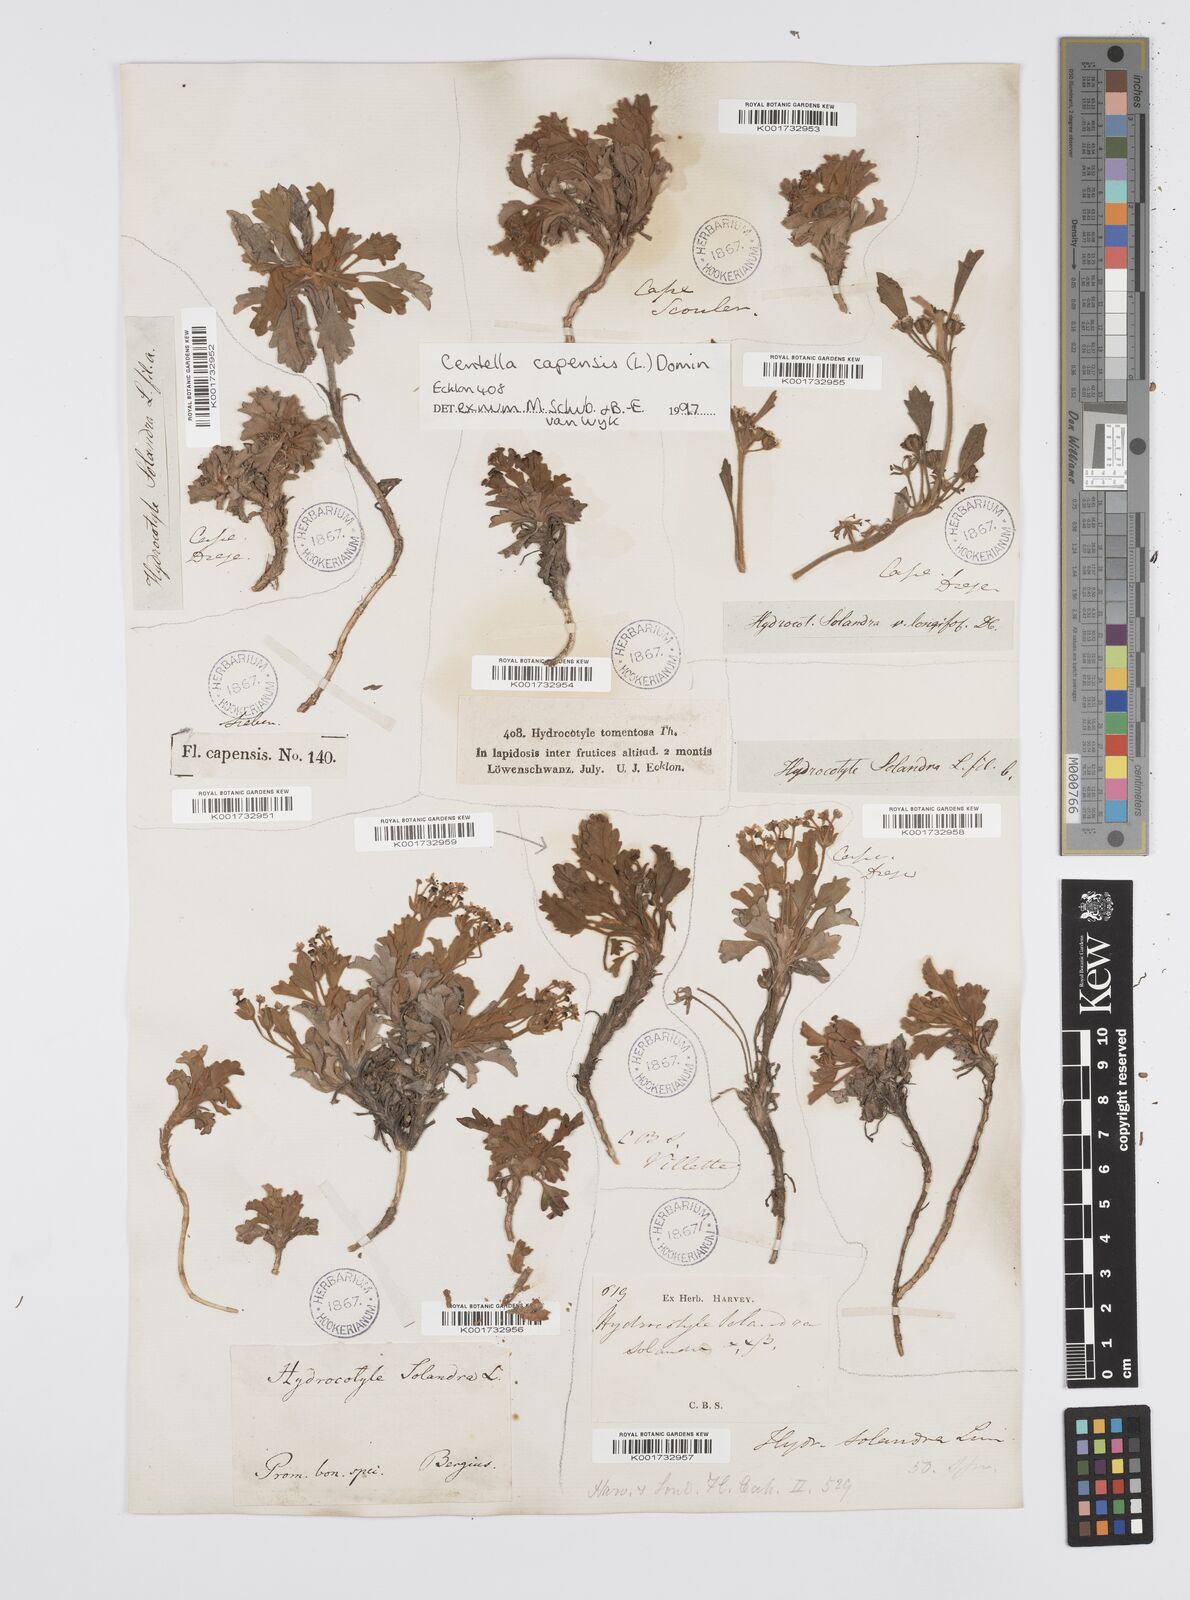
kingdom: Plantae
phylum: Tracheophyta
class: Magnoliopsida
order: Apiales
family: Apiaceae
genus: Centella
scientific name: Centella capensis
